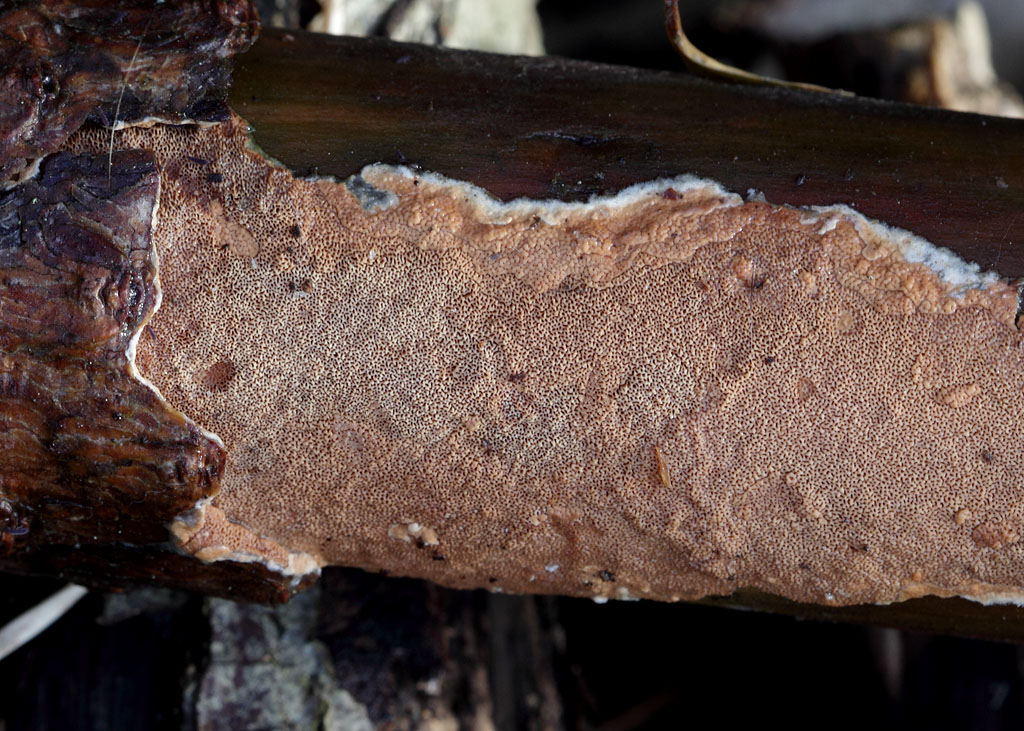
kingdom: Fungi
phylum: Basidiomycota
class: Agaricomycetes
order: Polyporales
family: Irpicaceae
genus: Meruliopsis
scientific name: Meruliopsis taxicola
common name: purpurbrun foldporesvamp
